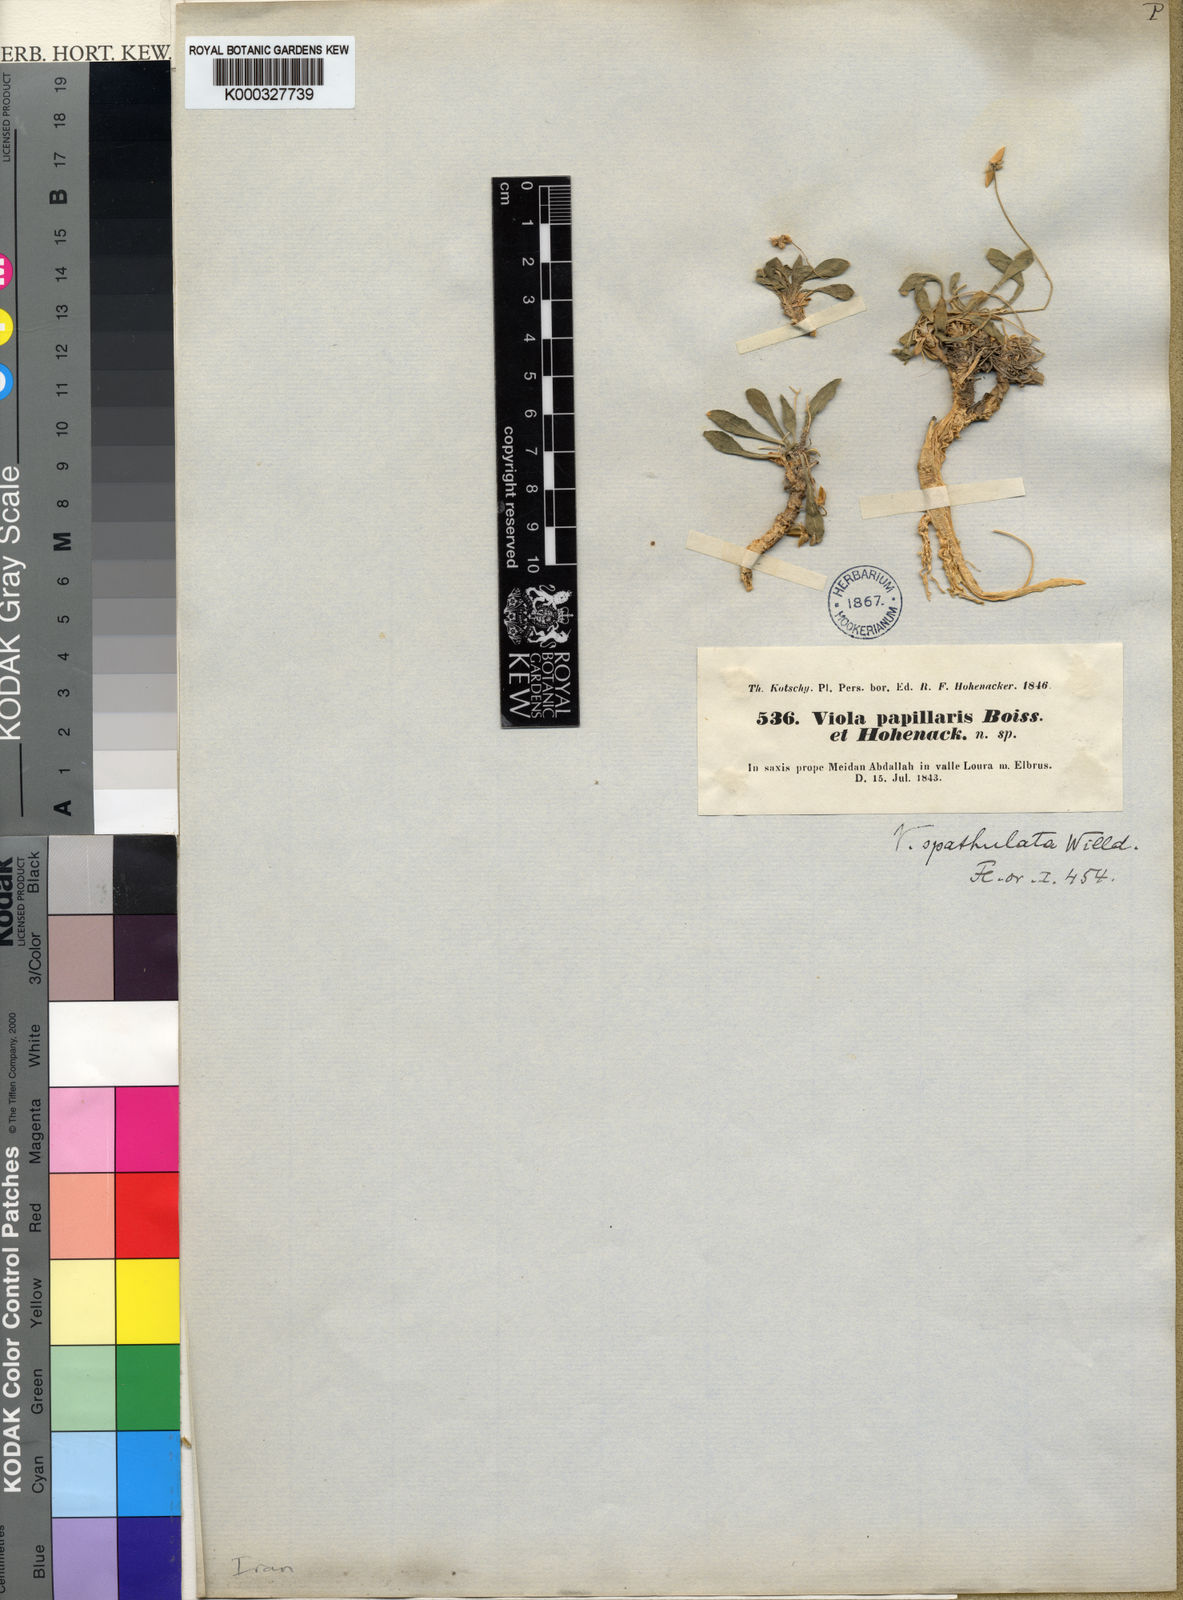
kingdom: Plantae
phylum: Tracheophyta
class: Magnoliopsida
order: Malpighiales
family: Violaceae
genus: Viola
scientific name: Viola spathulata
